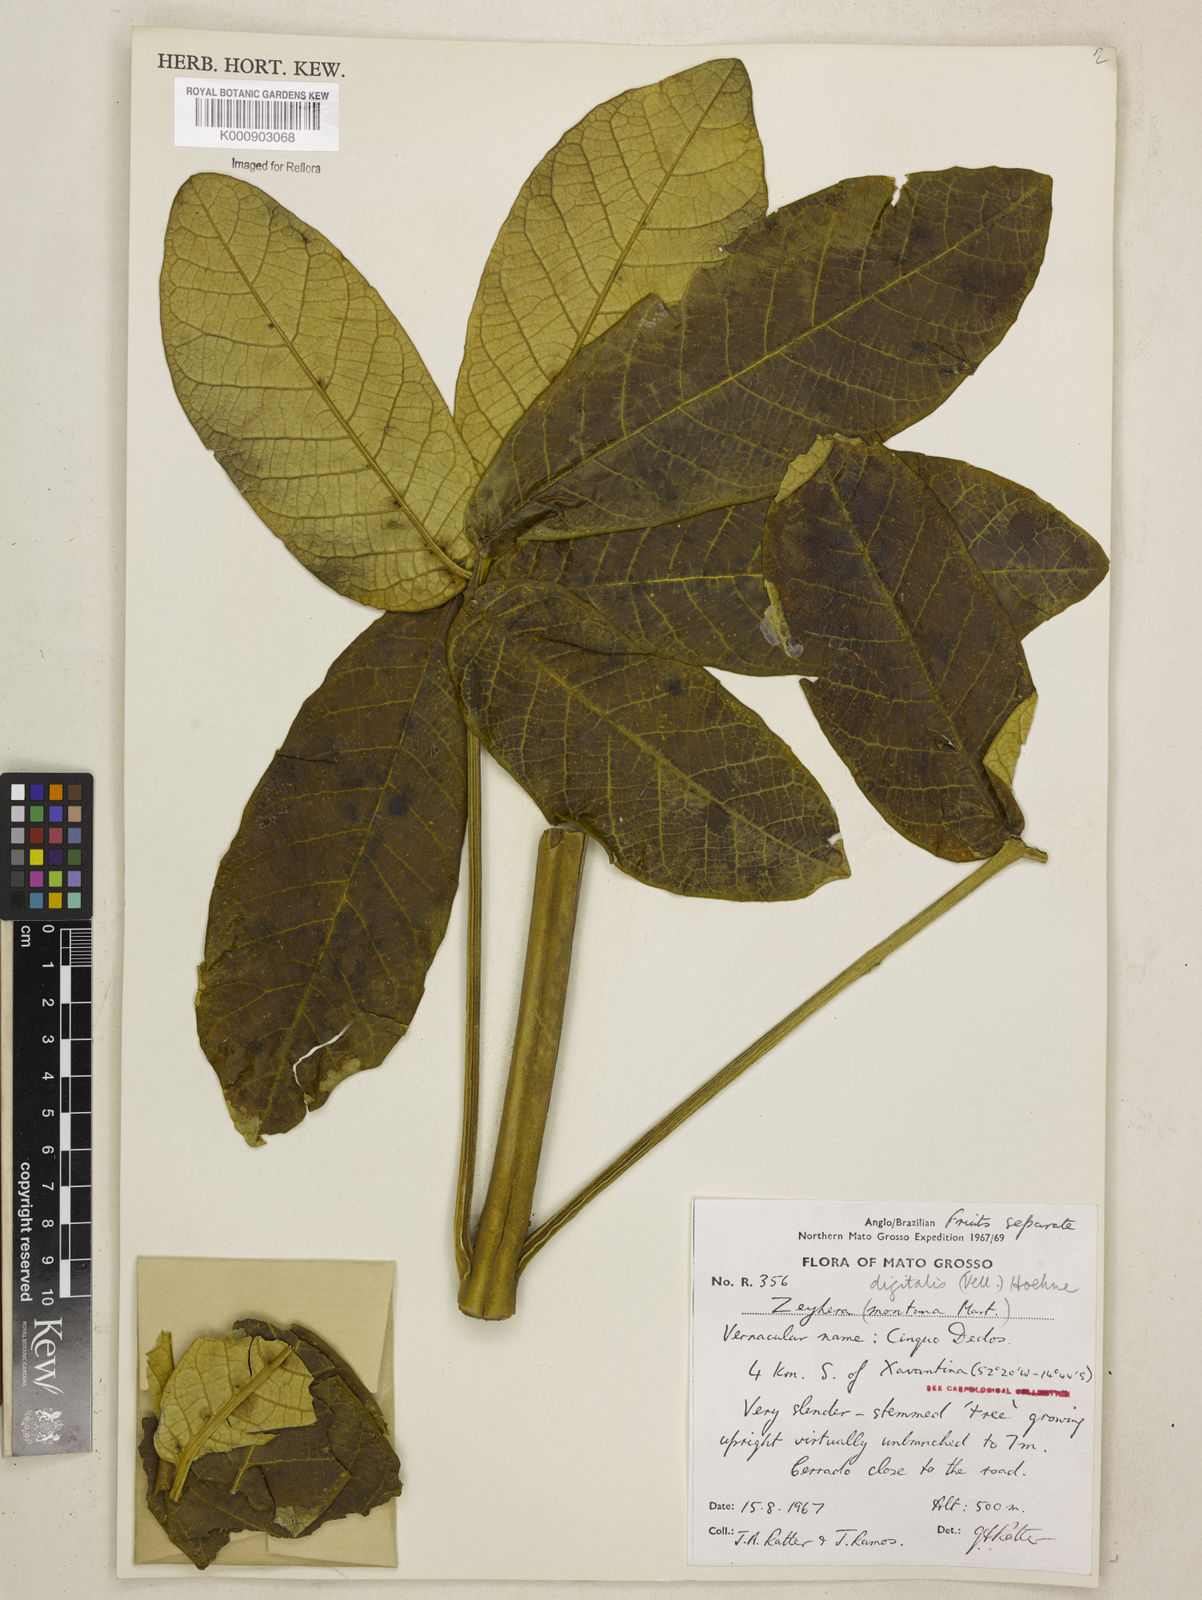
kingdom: Plantae
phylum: Tracheophyta
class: Magnoliopsida
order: Lamiales
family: Bignoniaceae
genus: Zeyheria
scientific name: Zeyheria
